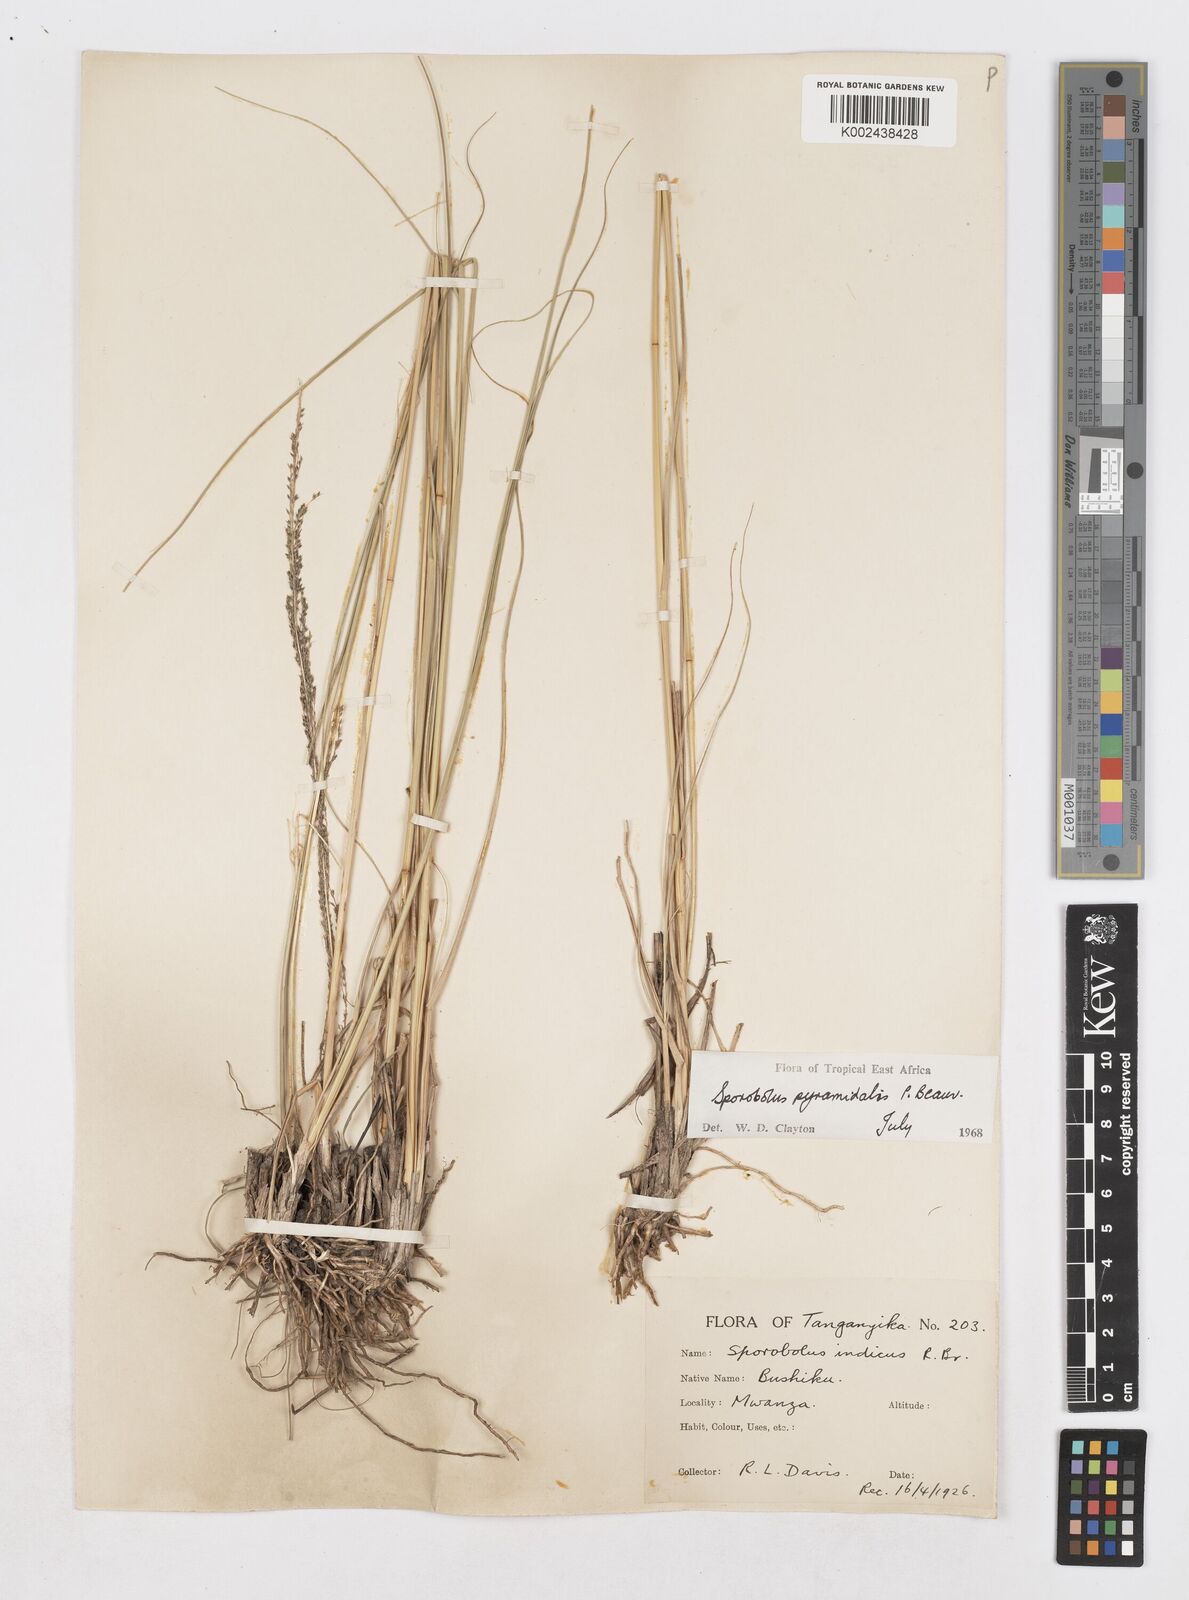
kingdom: Plantae
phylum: Tracheophyta
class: Liliopsida
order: Poales
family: Poaceae
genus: Sporobolus
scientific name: Sporobolus pyramidalis
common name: West indian dropseed
